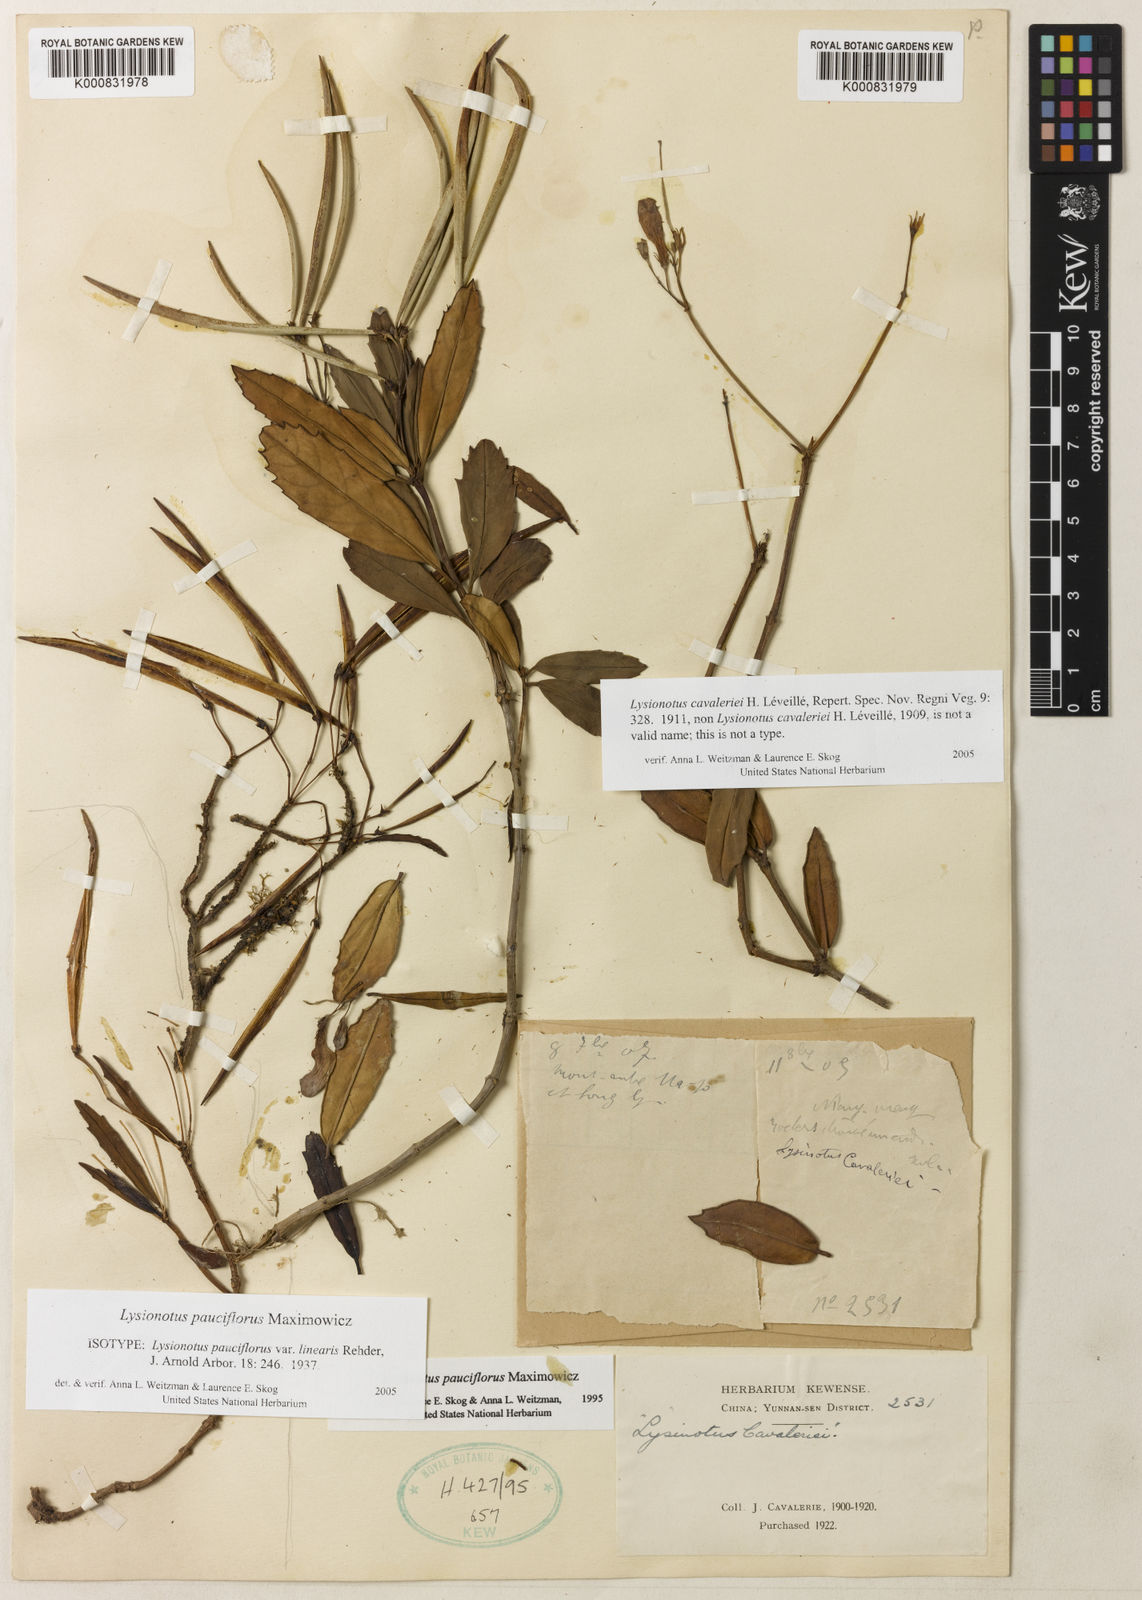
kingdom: Plantae
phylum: Tracheophyta
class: Magnoliopsida
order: Lamiales
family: Gesneriaceae
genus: Lysionotus
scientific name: Lysionotus pauciflorus
